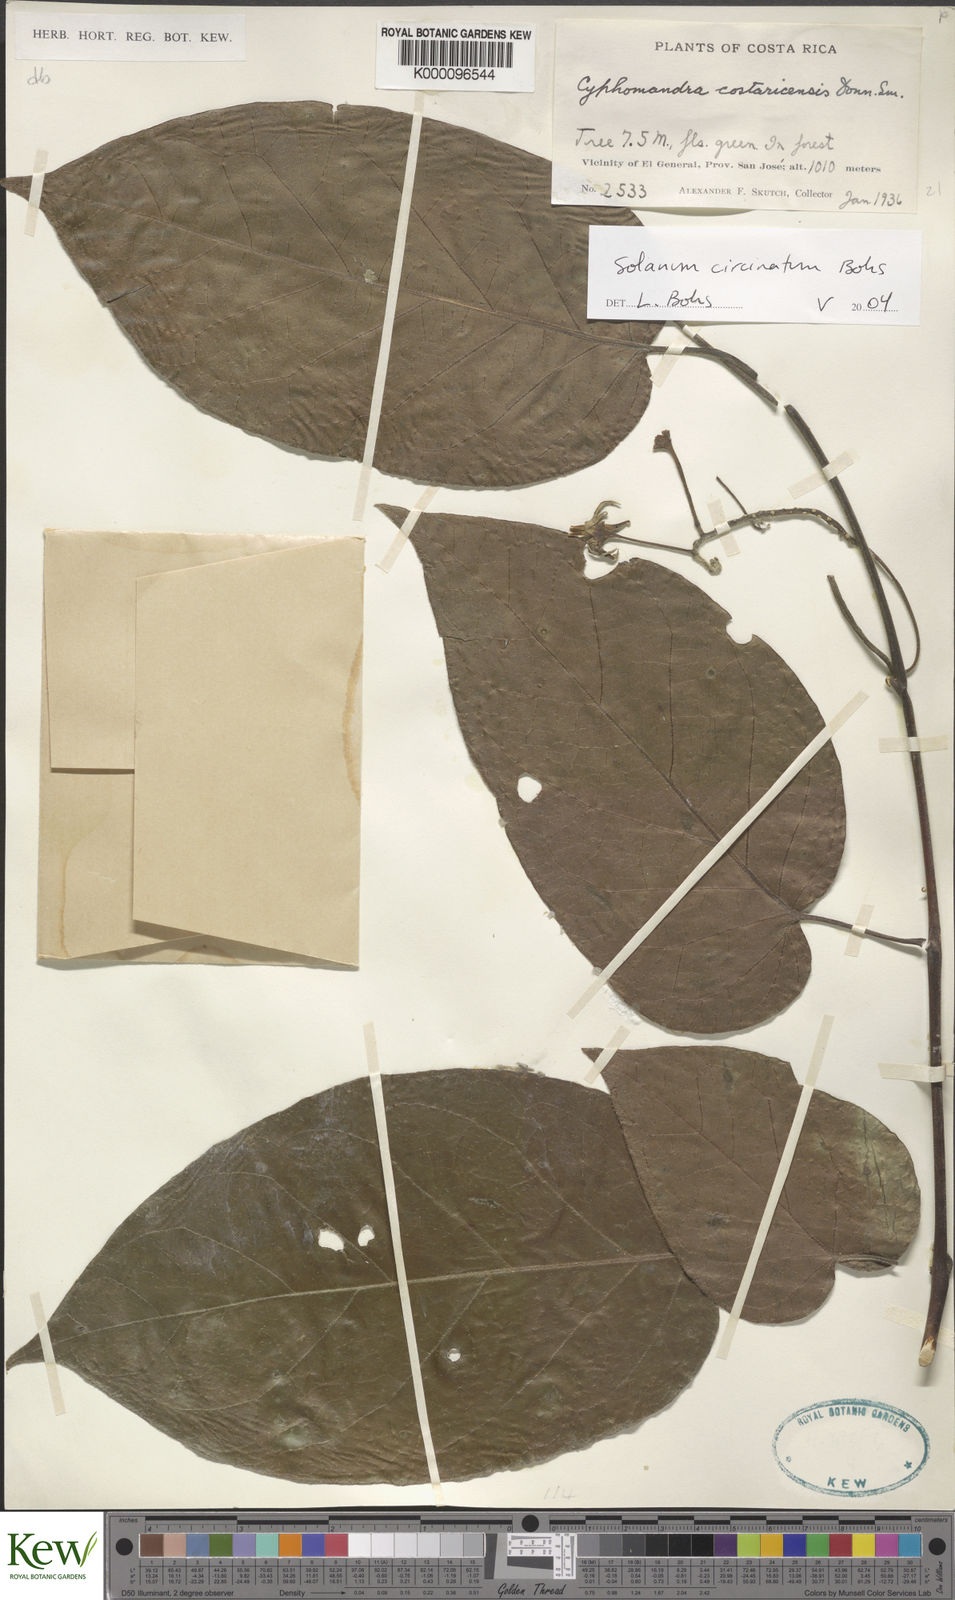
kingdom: Plantae
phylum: Tracheophyta
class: Magnoliopsida
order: Solanales
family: Solanaceae
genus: Solanum
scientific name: Solanum splendens
